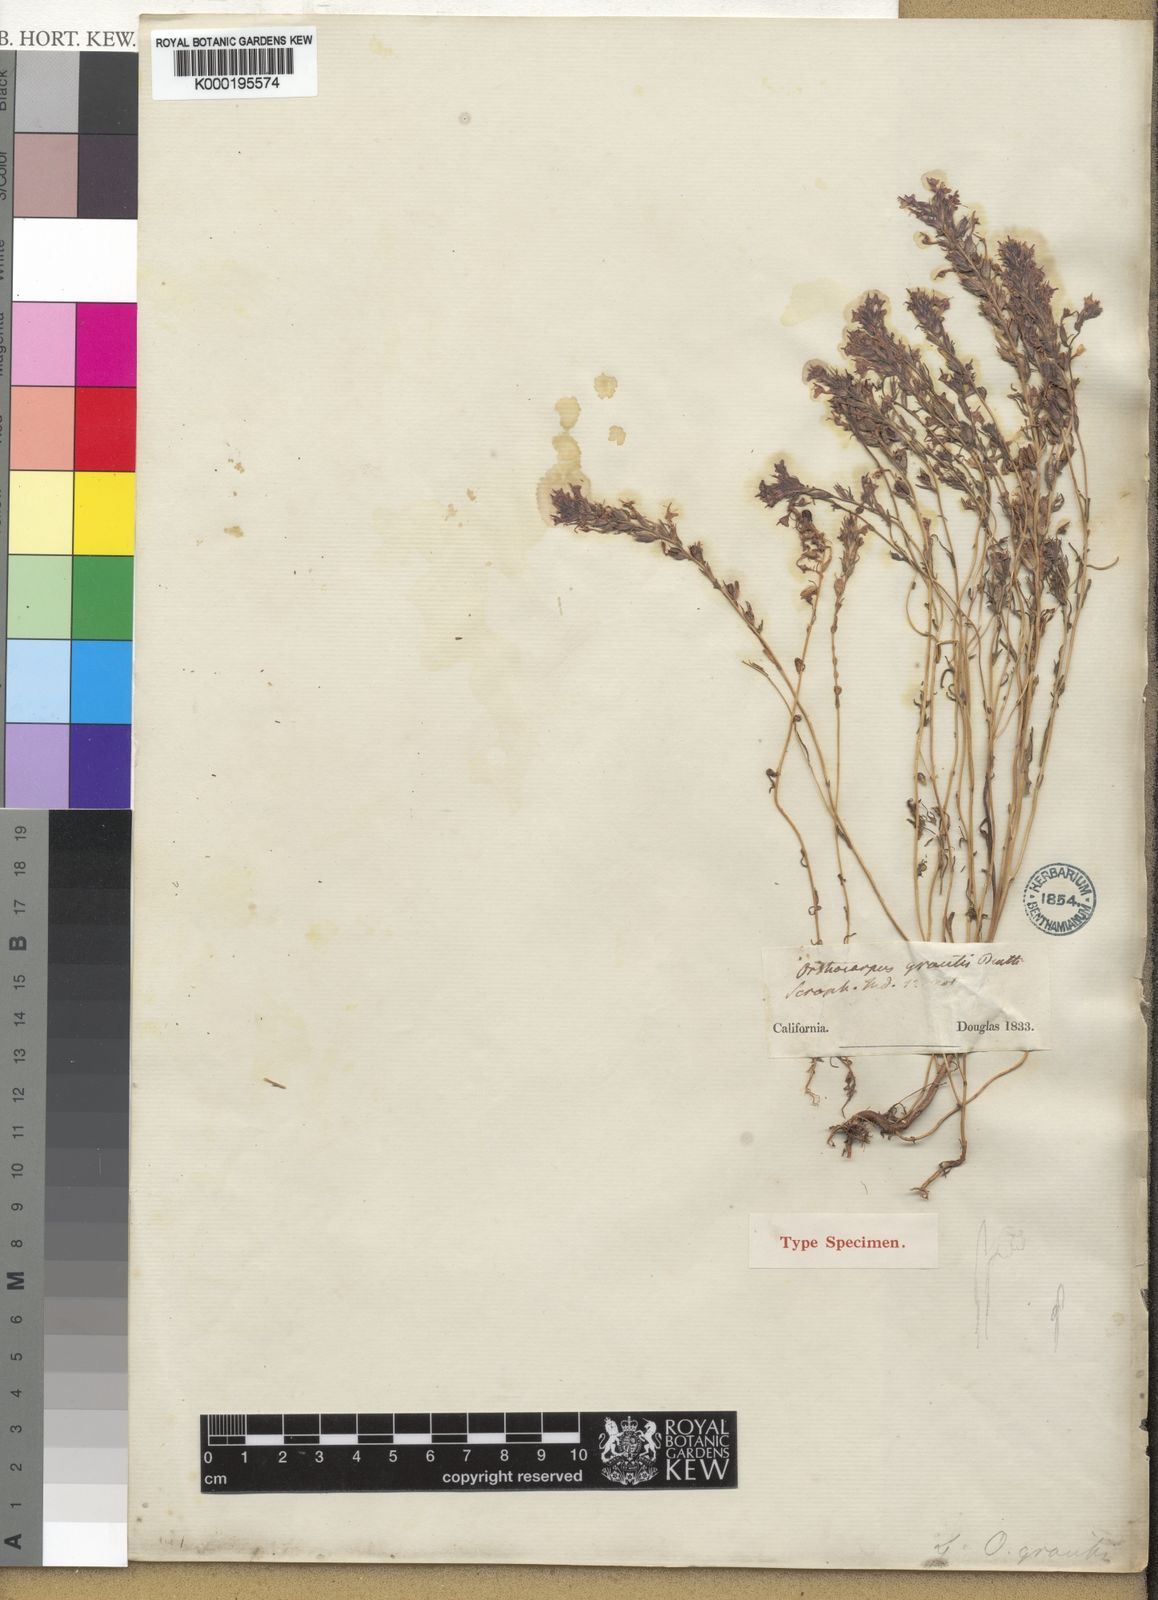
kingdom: Plantae
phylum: Tracheophyta
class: Magnoliopsida
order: Lamiales
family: Orobanchaceae
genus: Castilleja
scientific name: Castilleja densiflora
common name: Dense-flower indian paintbrush
